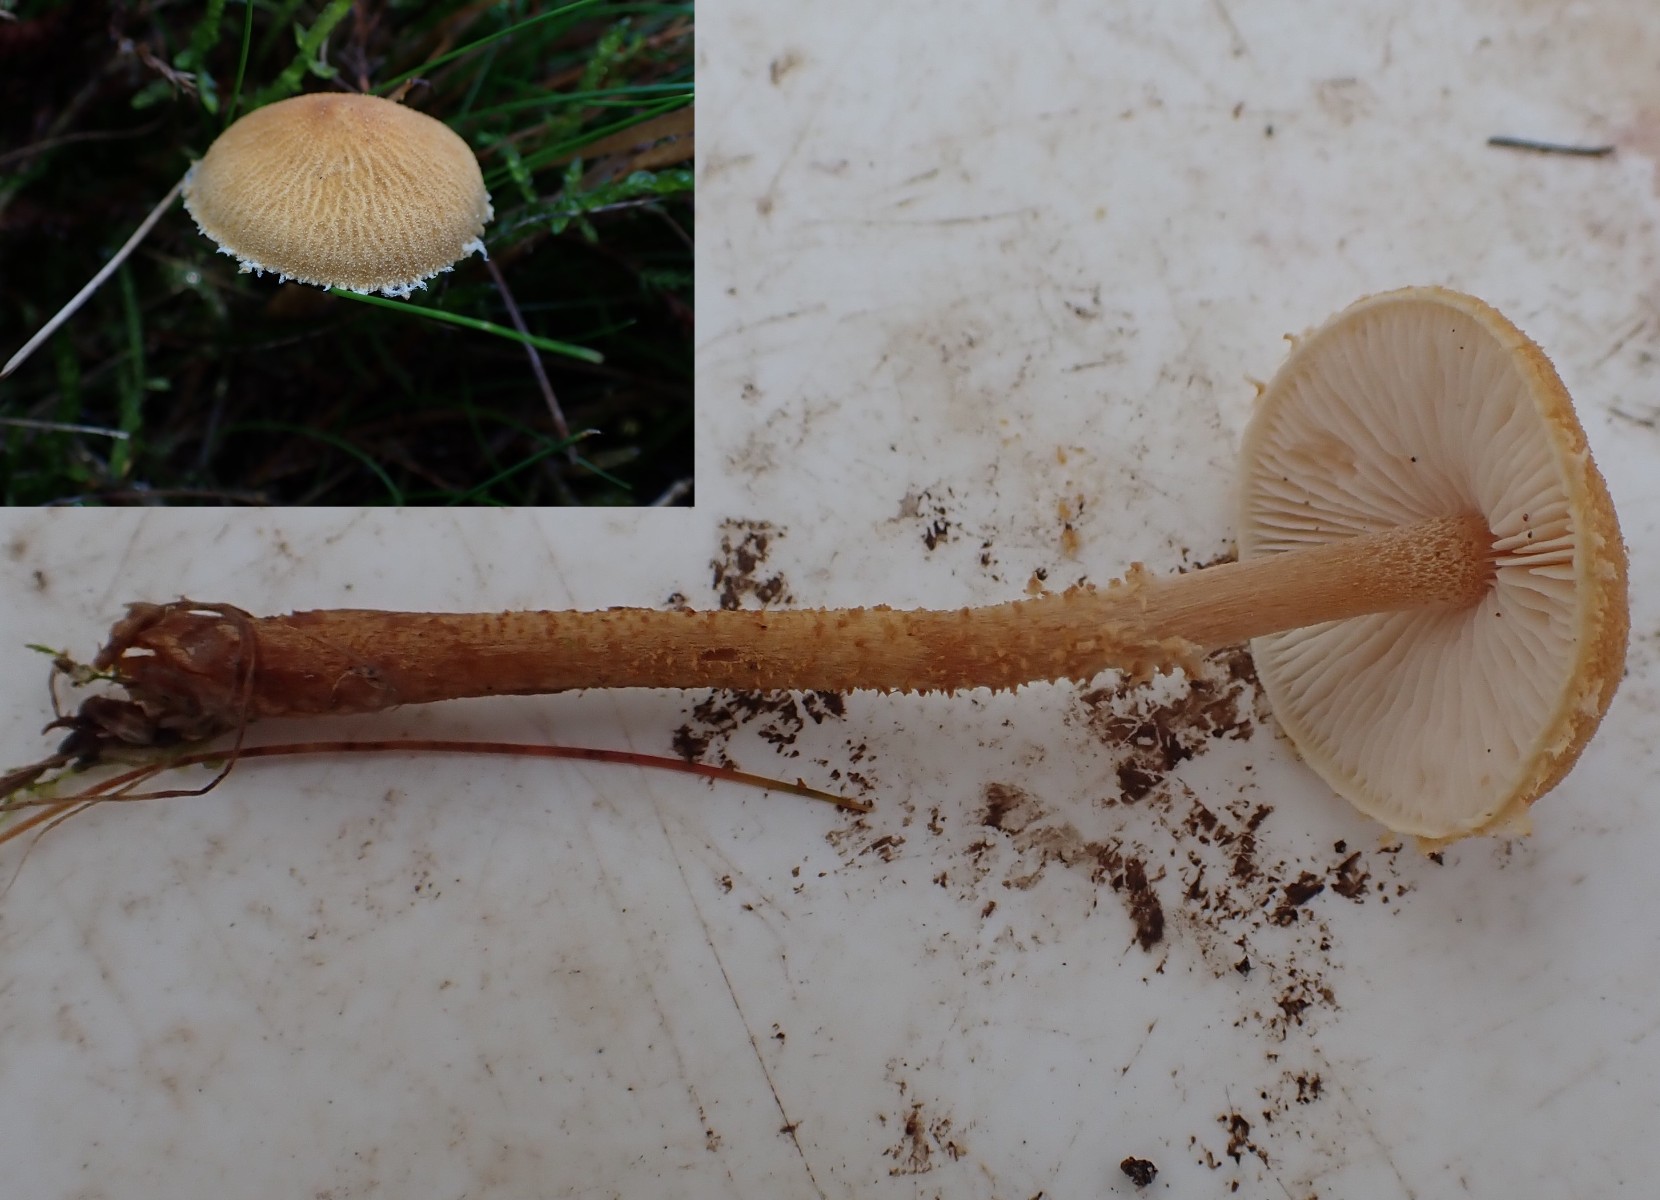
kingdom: Fungi
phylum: Basidiomycota
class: Agaricomycetes
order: Agaricales
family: Tricholomataceae
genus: Cystoderma
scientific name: Cystoderma amianthinum
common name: okkergul grynhat
